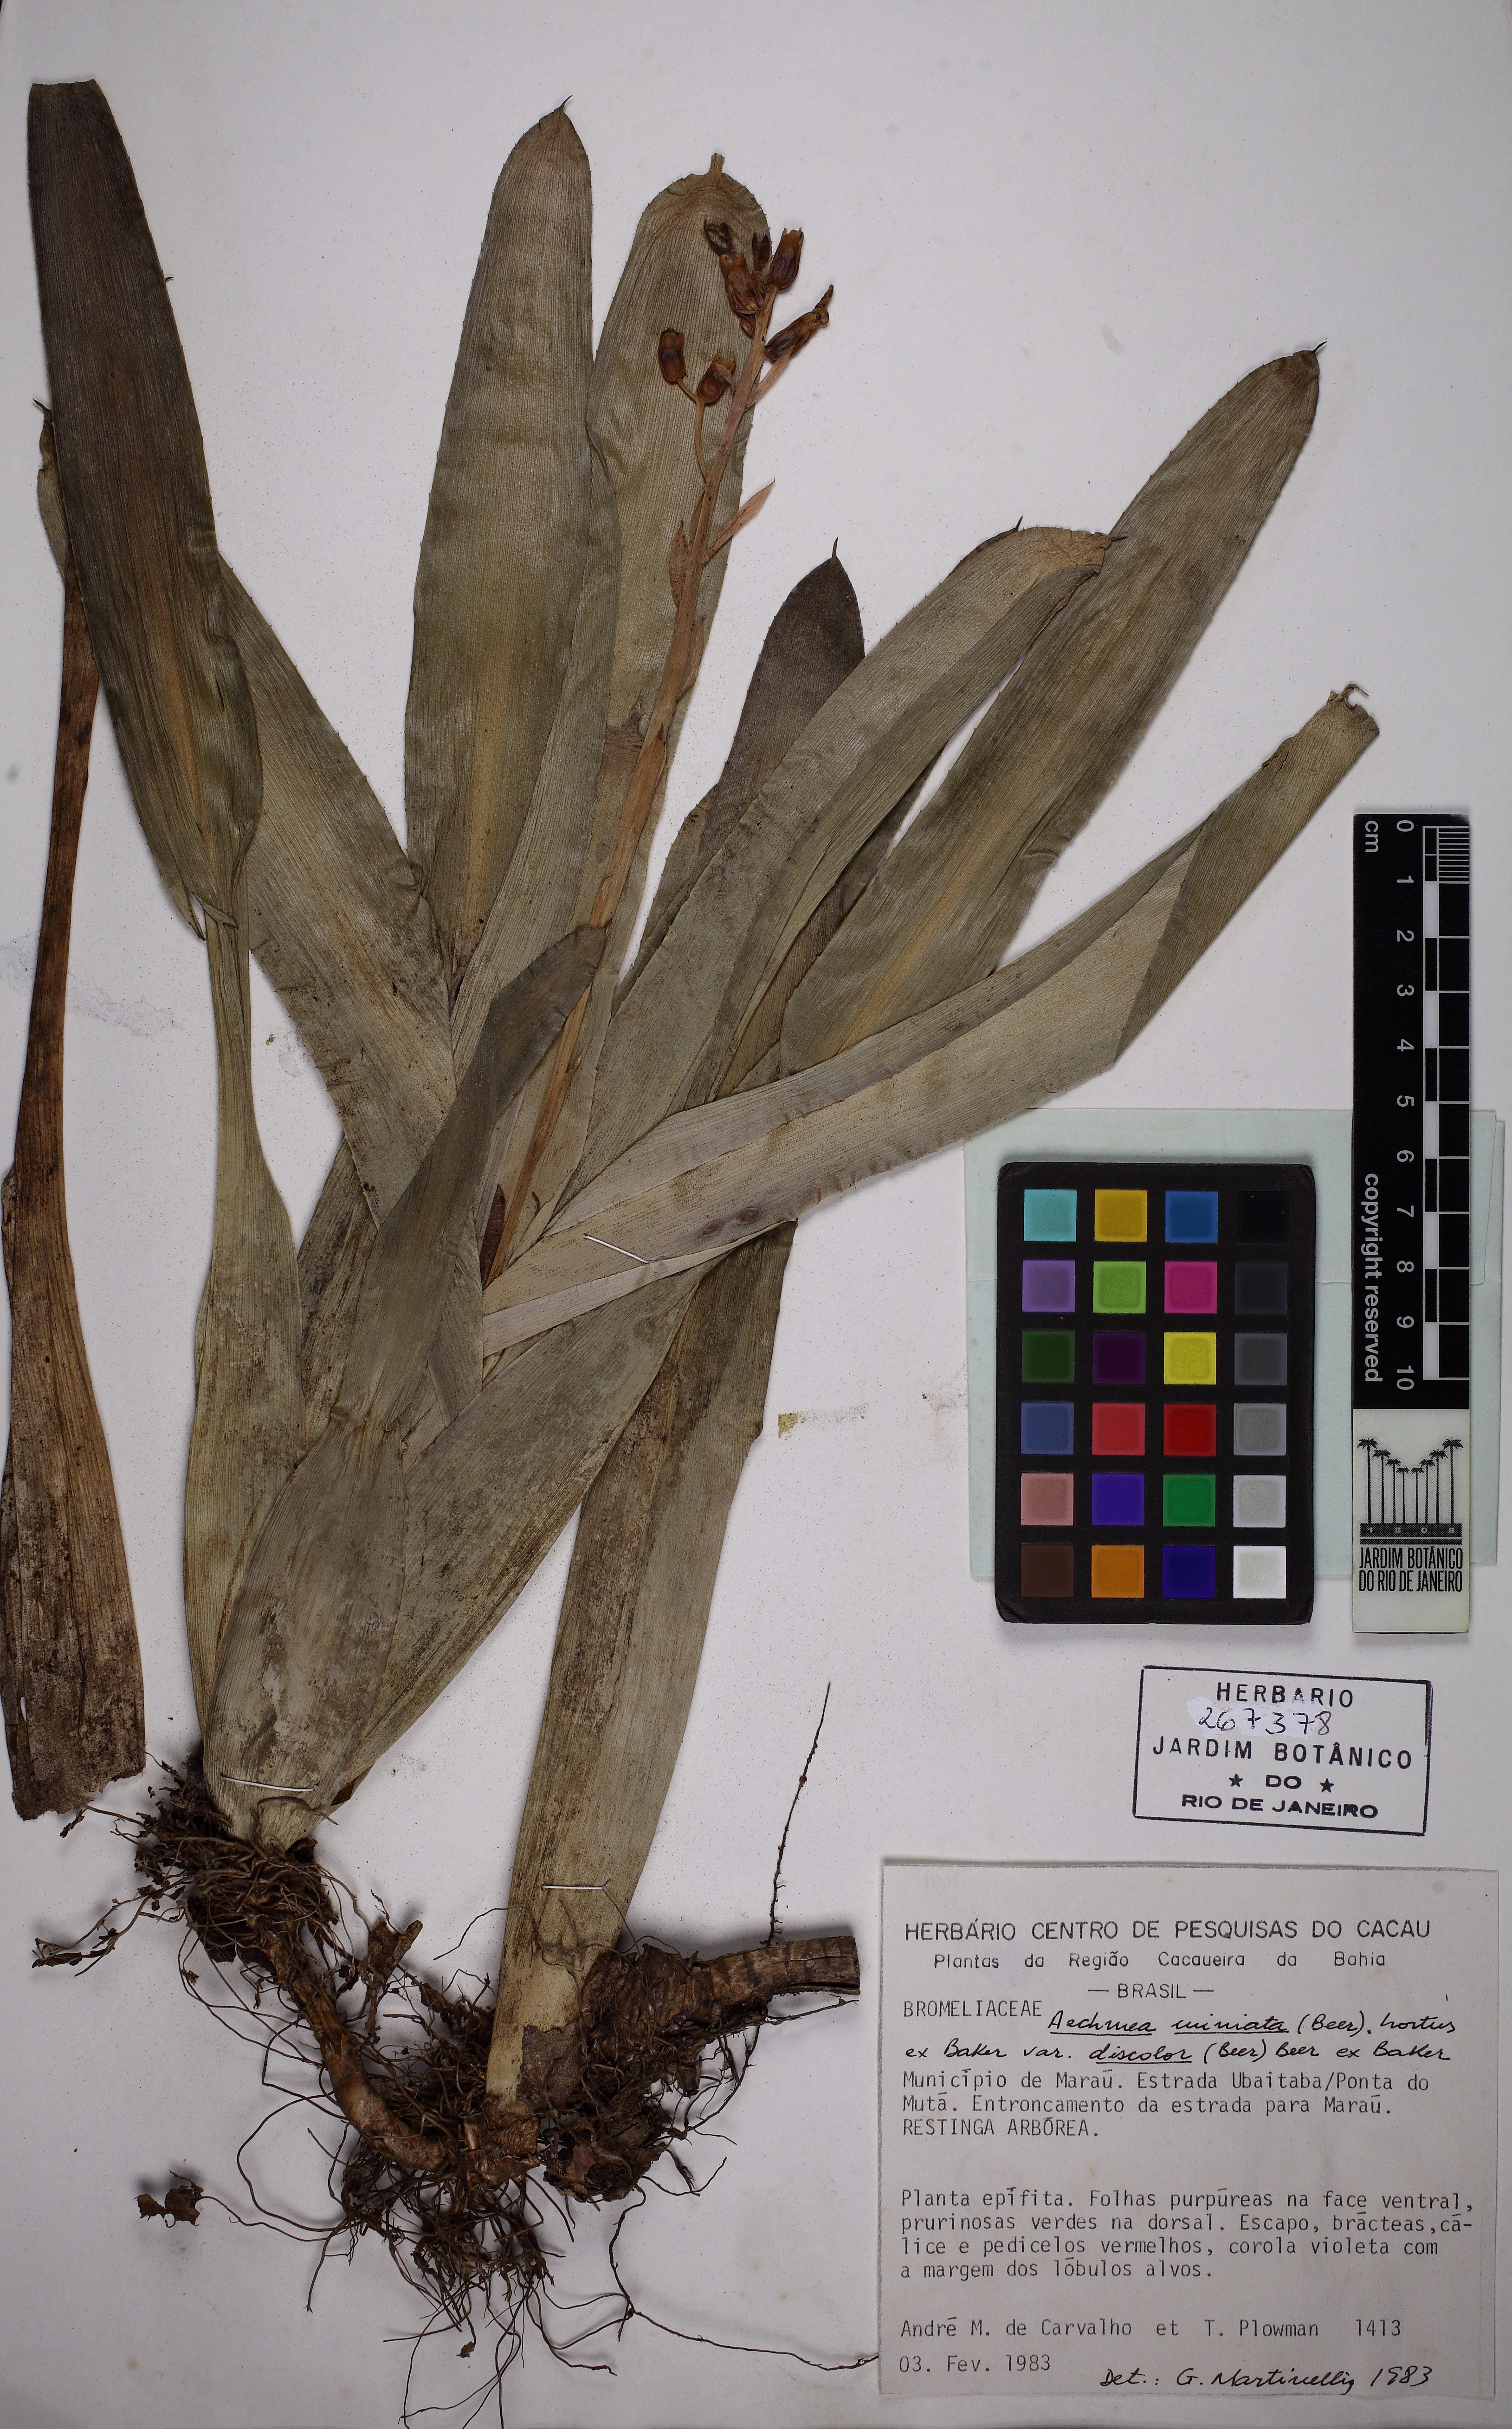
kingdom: Plantae
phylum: Tracheophyta
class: Liliopsida
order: Poales
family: Bromeliaceae
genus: Aechmea
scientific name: Aechmea miniata
